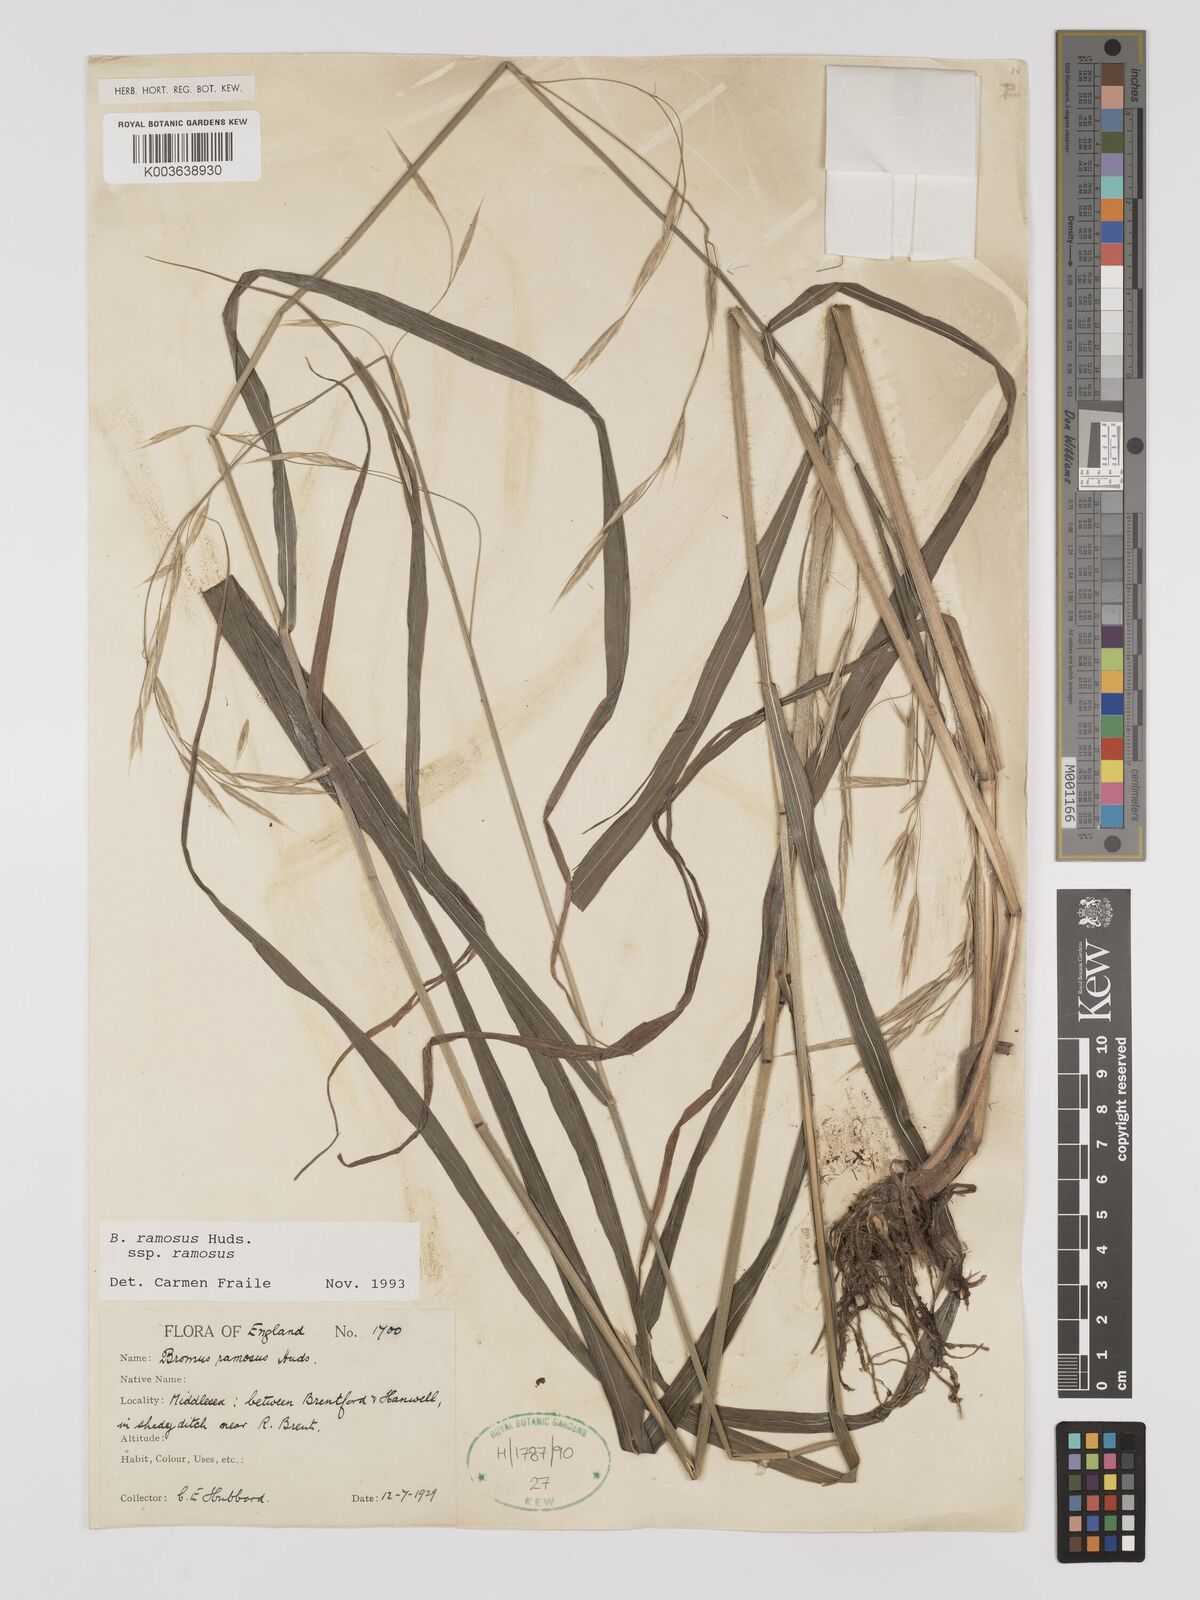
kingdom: Plantae
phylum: Tracheophyta
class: Liliopsida
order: Poales
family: Poaceae
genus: Bromus
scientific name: Bromus ramosus
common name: Hairy brome
